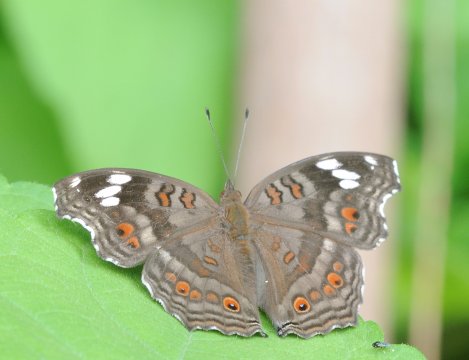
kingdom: Animalia
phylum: Arthropoda
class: Insecta
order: Lepidoptera
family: Nymphalidae
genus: Junonia
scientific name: Junonia natalica
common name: Natal Pansy
